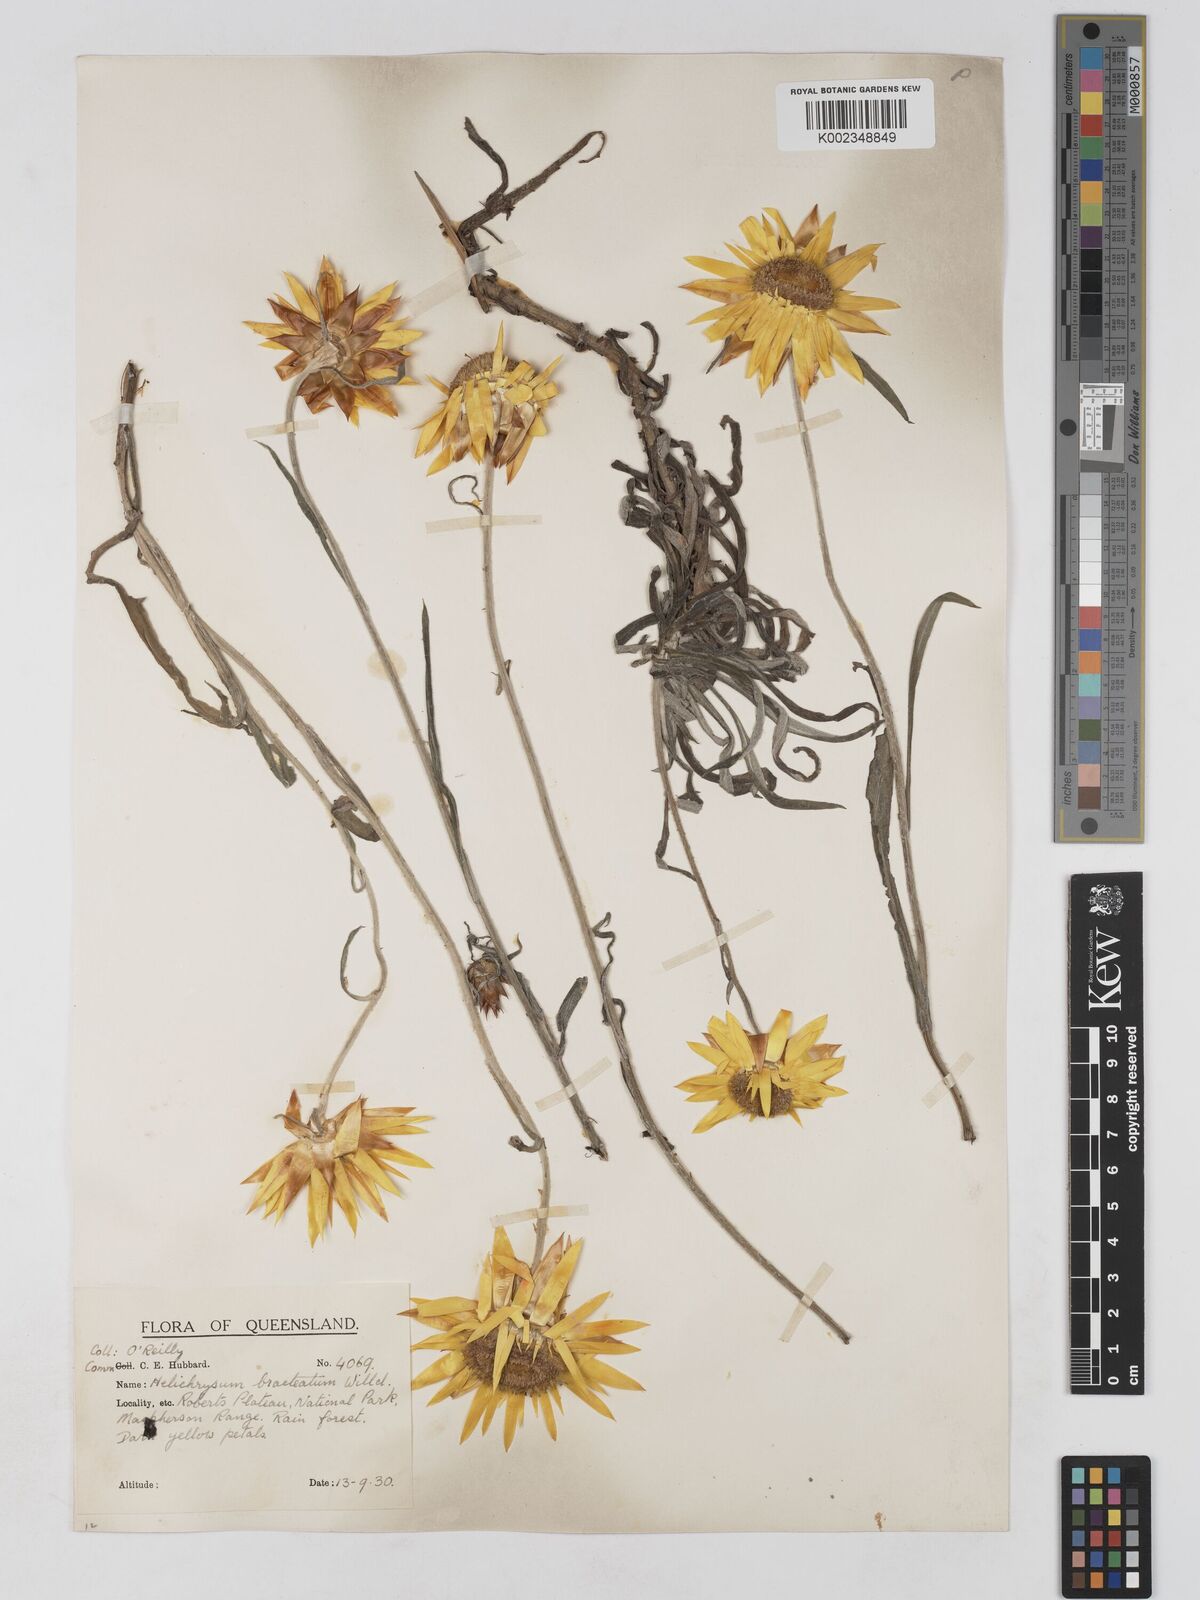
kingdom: Plantae
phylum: Tracheophyta
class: Magnoliopsida
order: Asterales
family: Asteraceae
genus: Xerochrysum
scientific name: Xerochrysum bracteatum
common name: Bracted strawflower
